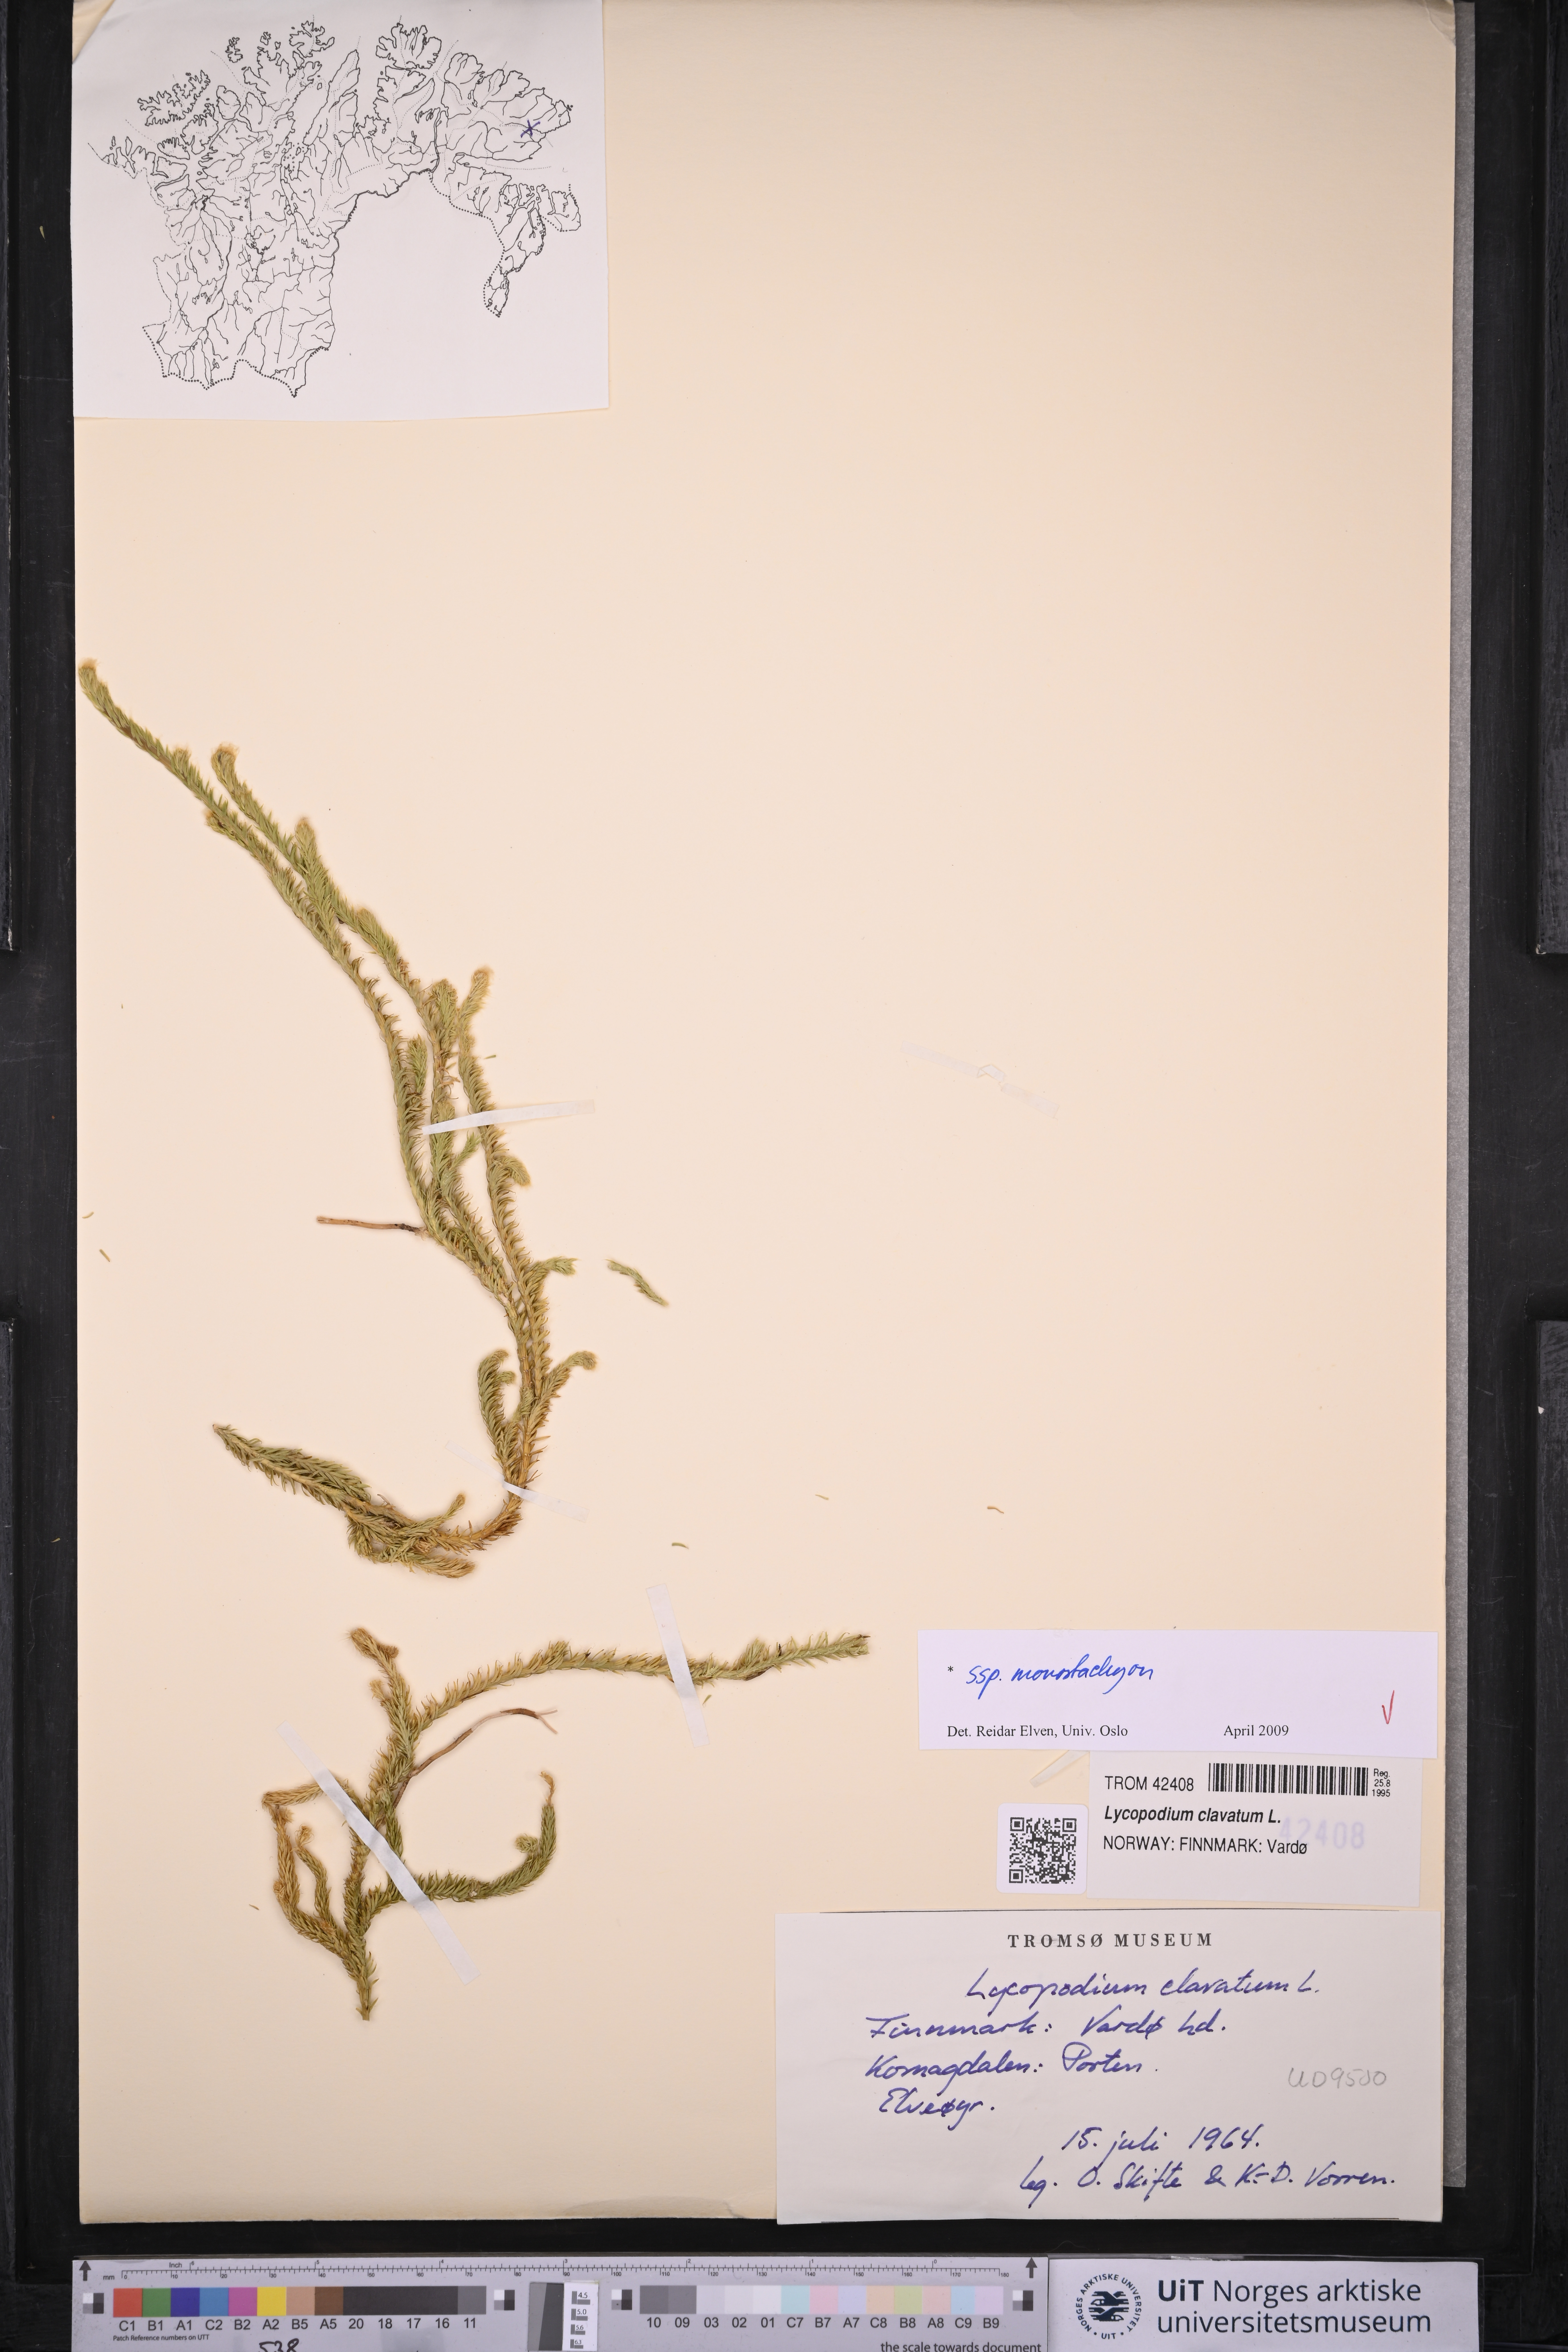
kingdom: Plantae
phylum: Tracheophyta
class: Lycopodiopsida
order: Lycopodiales
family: Lycopodiaceae
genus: Lycopodium
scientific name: Lycopodium lagopus
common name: One-cone clubmoss
